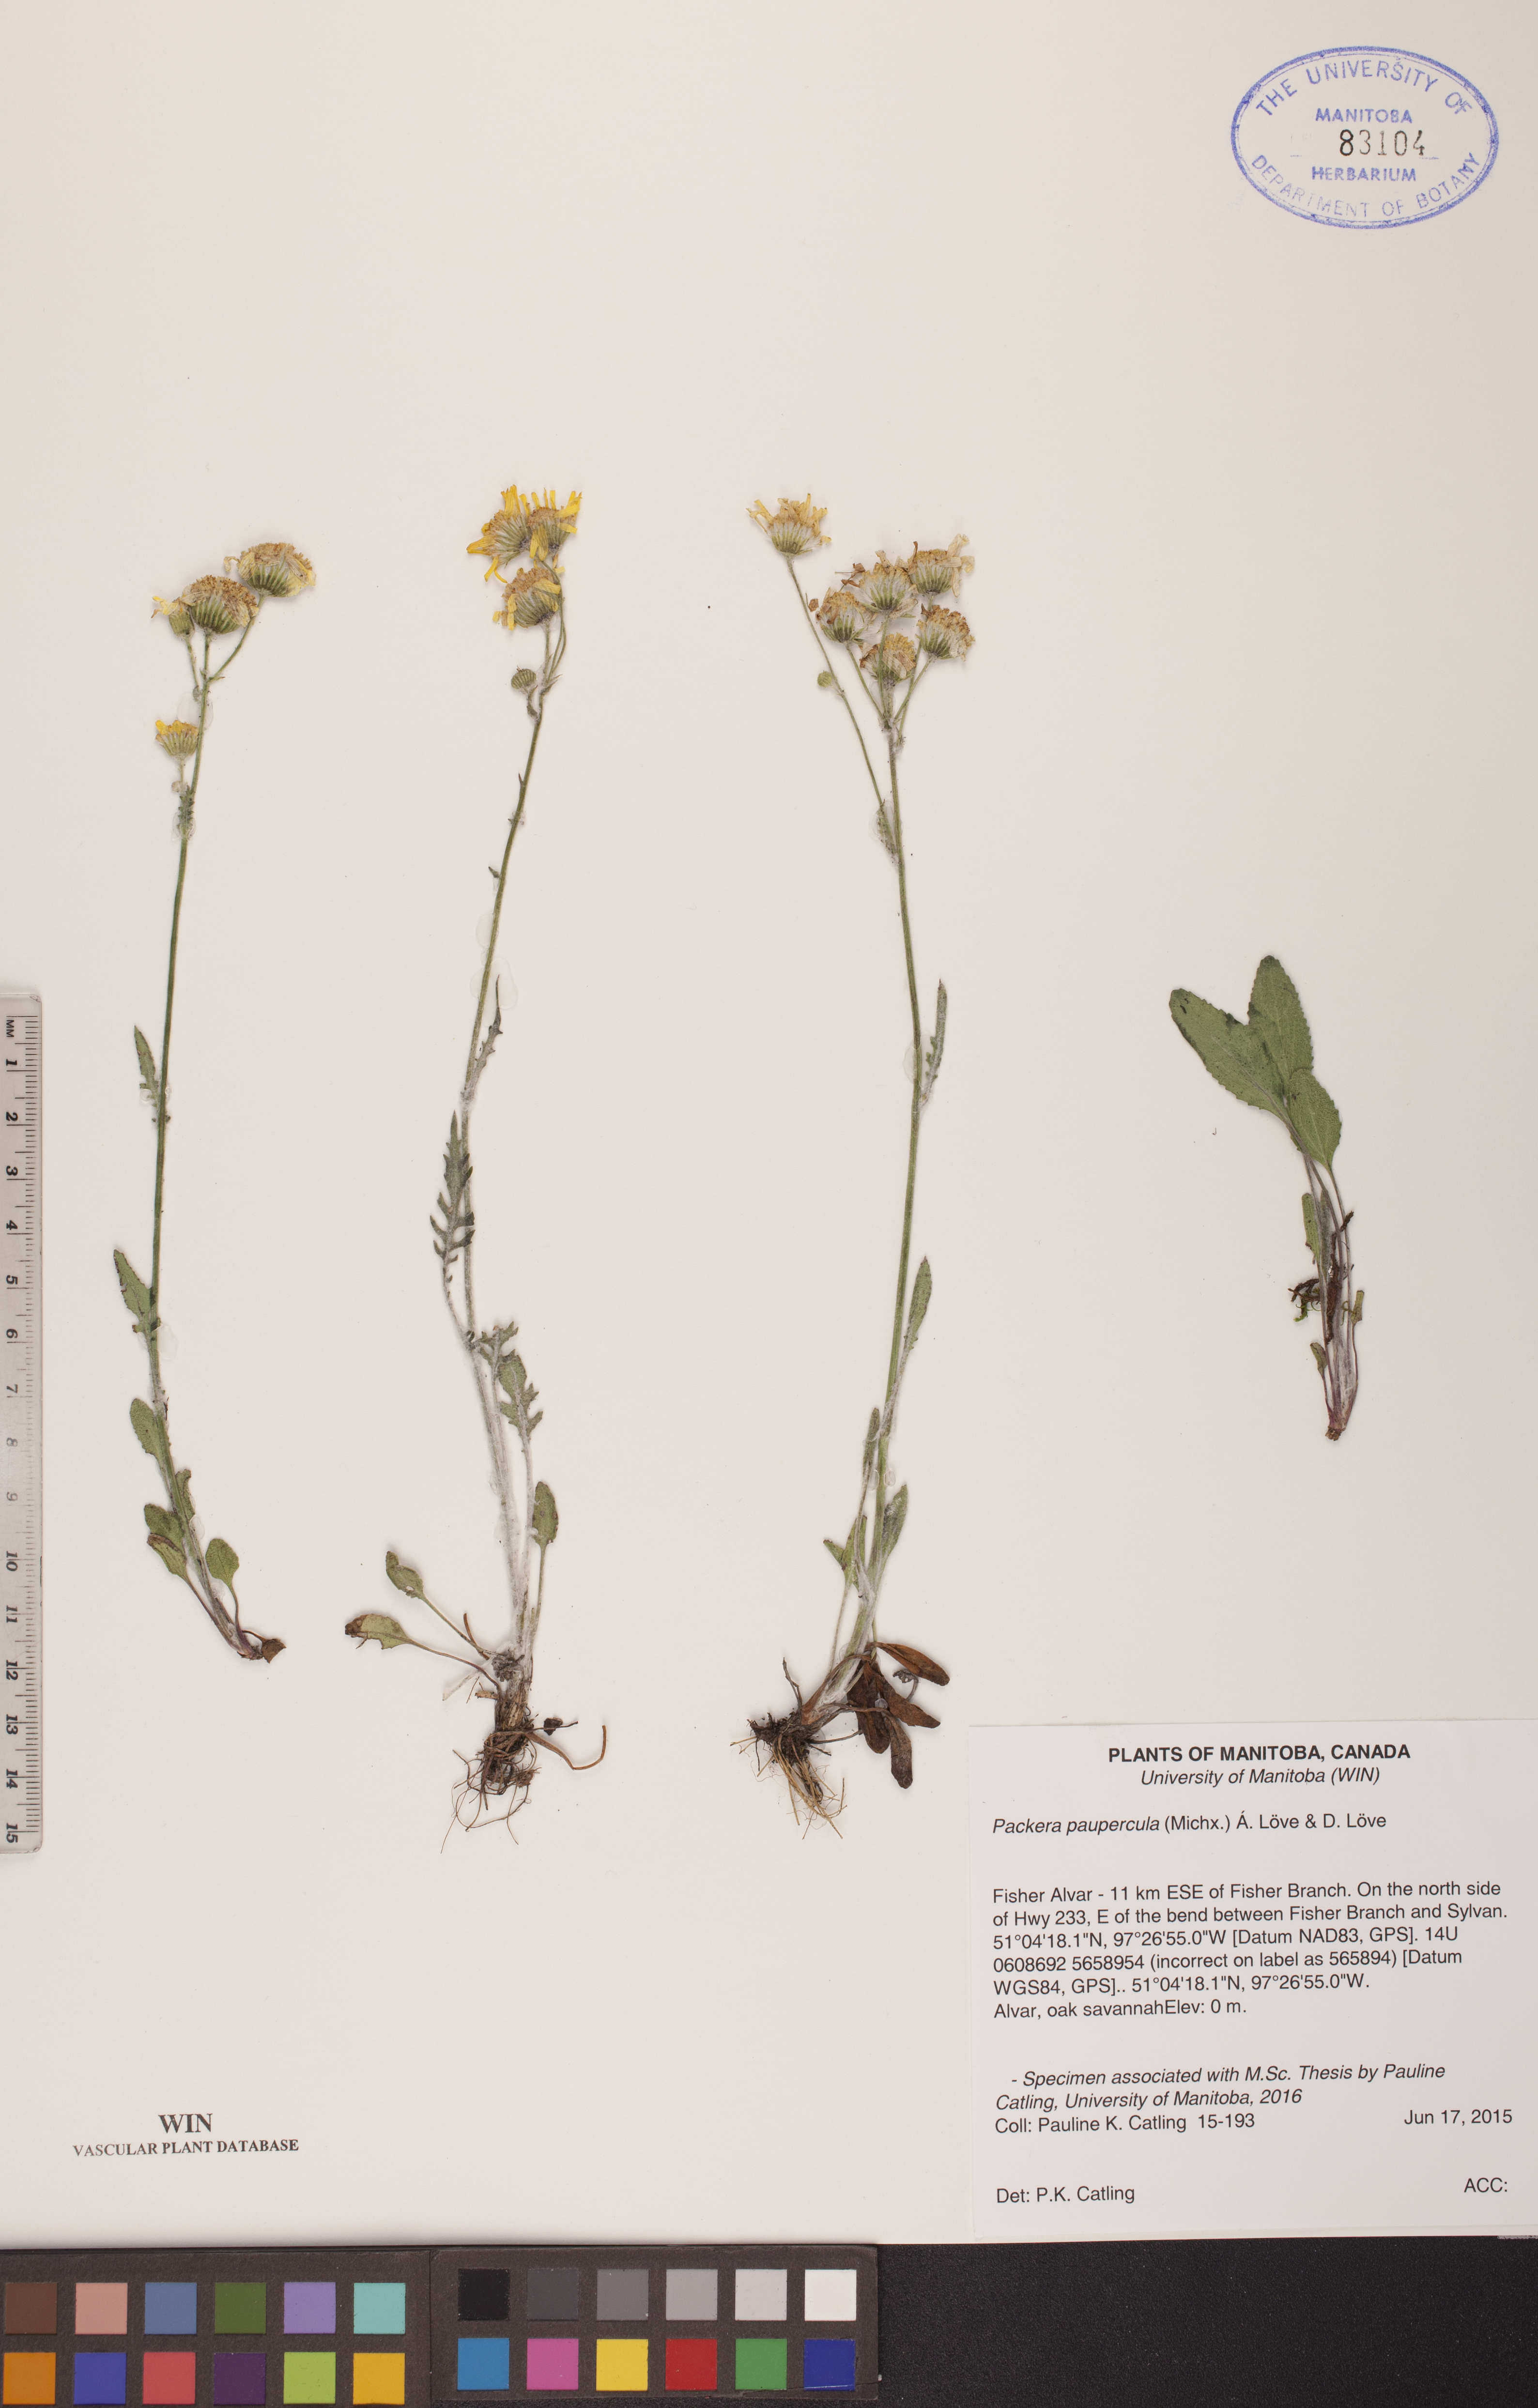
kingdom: Plantae
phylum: Tracheophyta
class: Magnoliopsida
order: Asterales
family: Asteraceae
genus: Packera
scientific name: Packera paupercula
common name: Balsam groundsel
